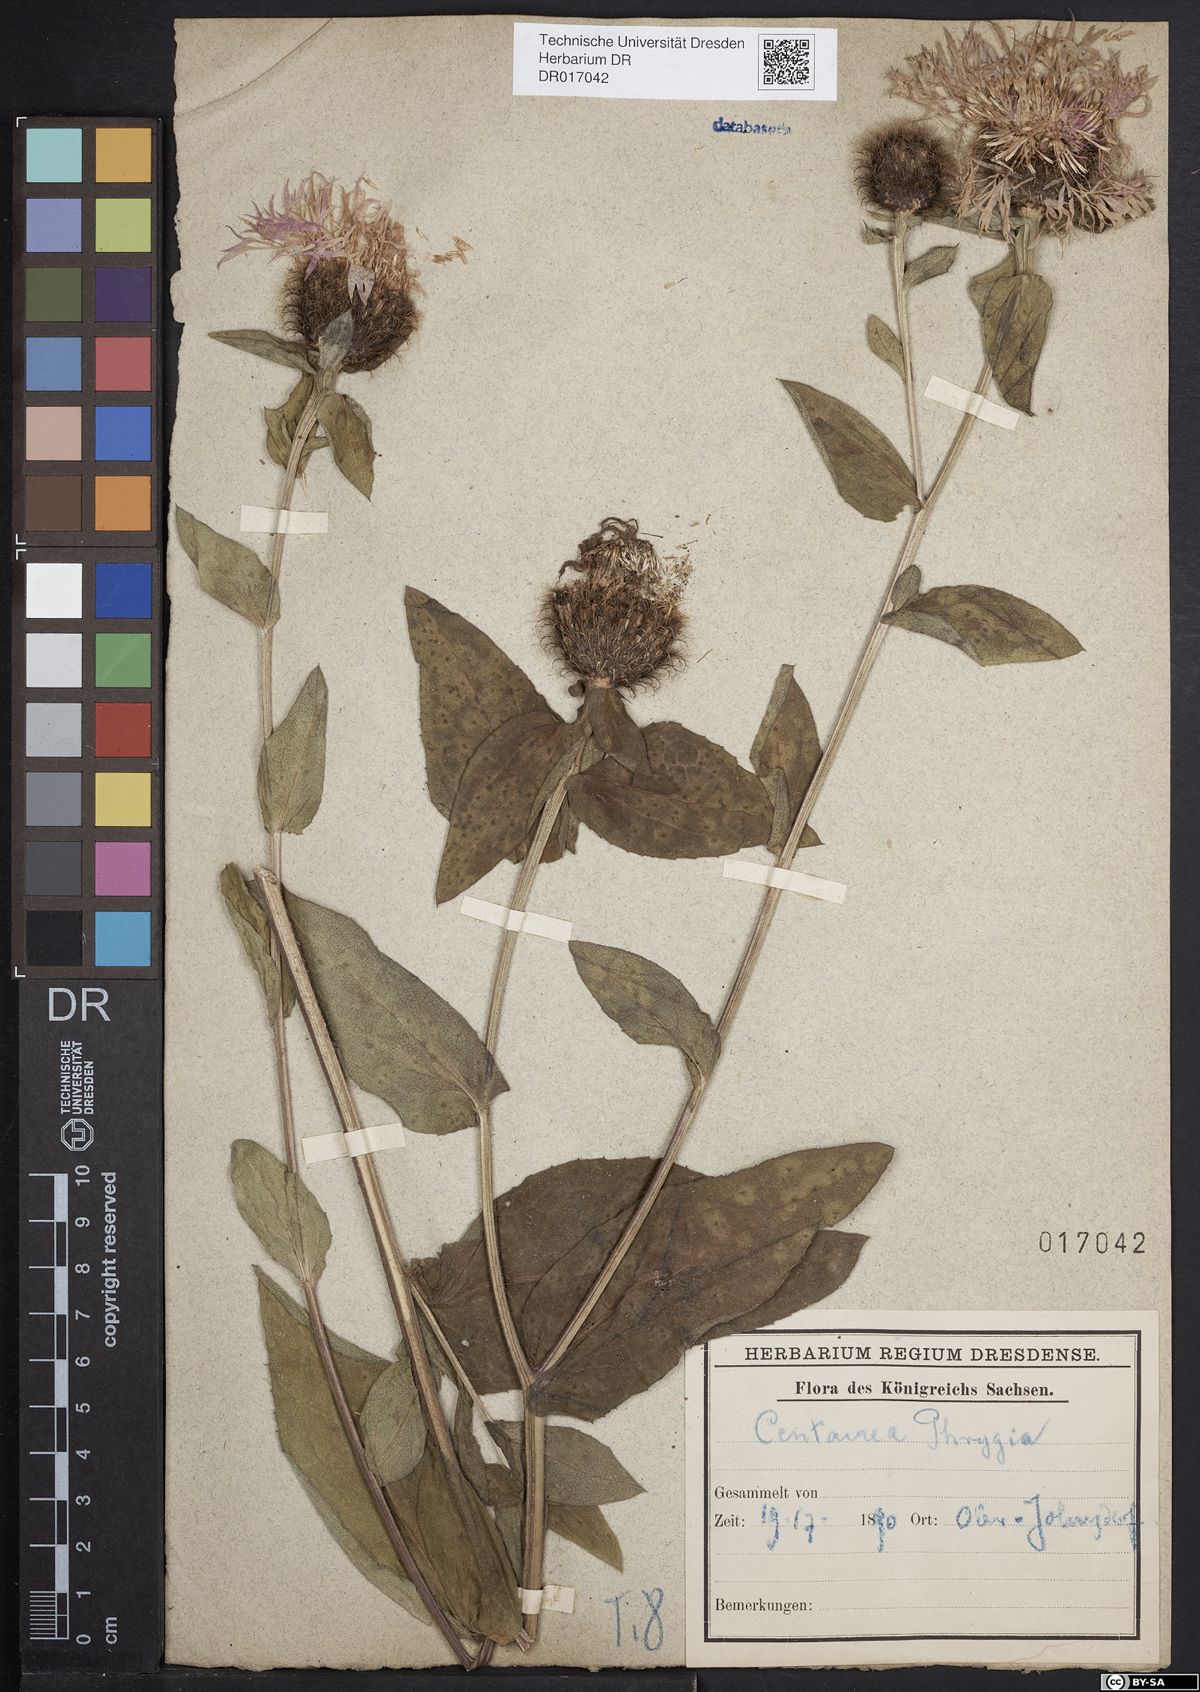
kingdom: Plantae
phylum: Tracheophyta
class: Magnoliopsida
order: Asterales
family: Asteraceae
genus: Centaurea
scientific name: Centaurea pseudophrygia
